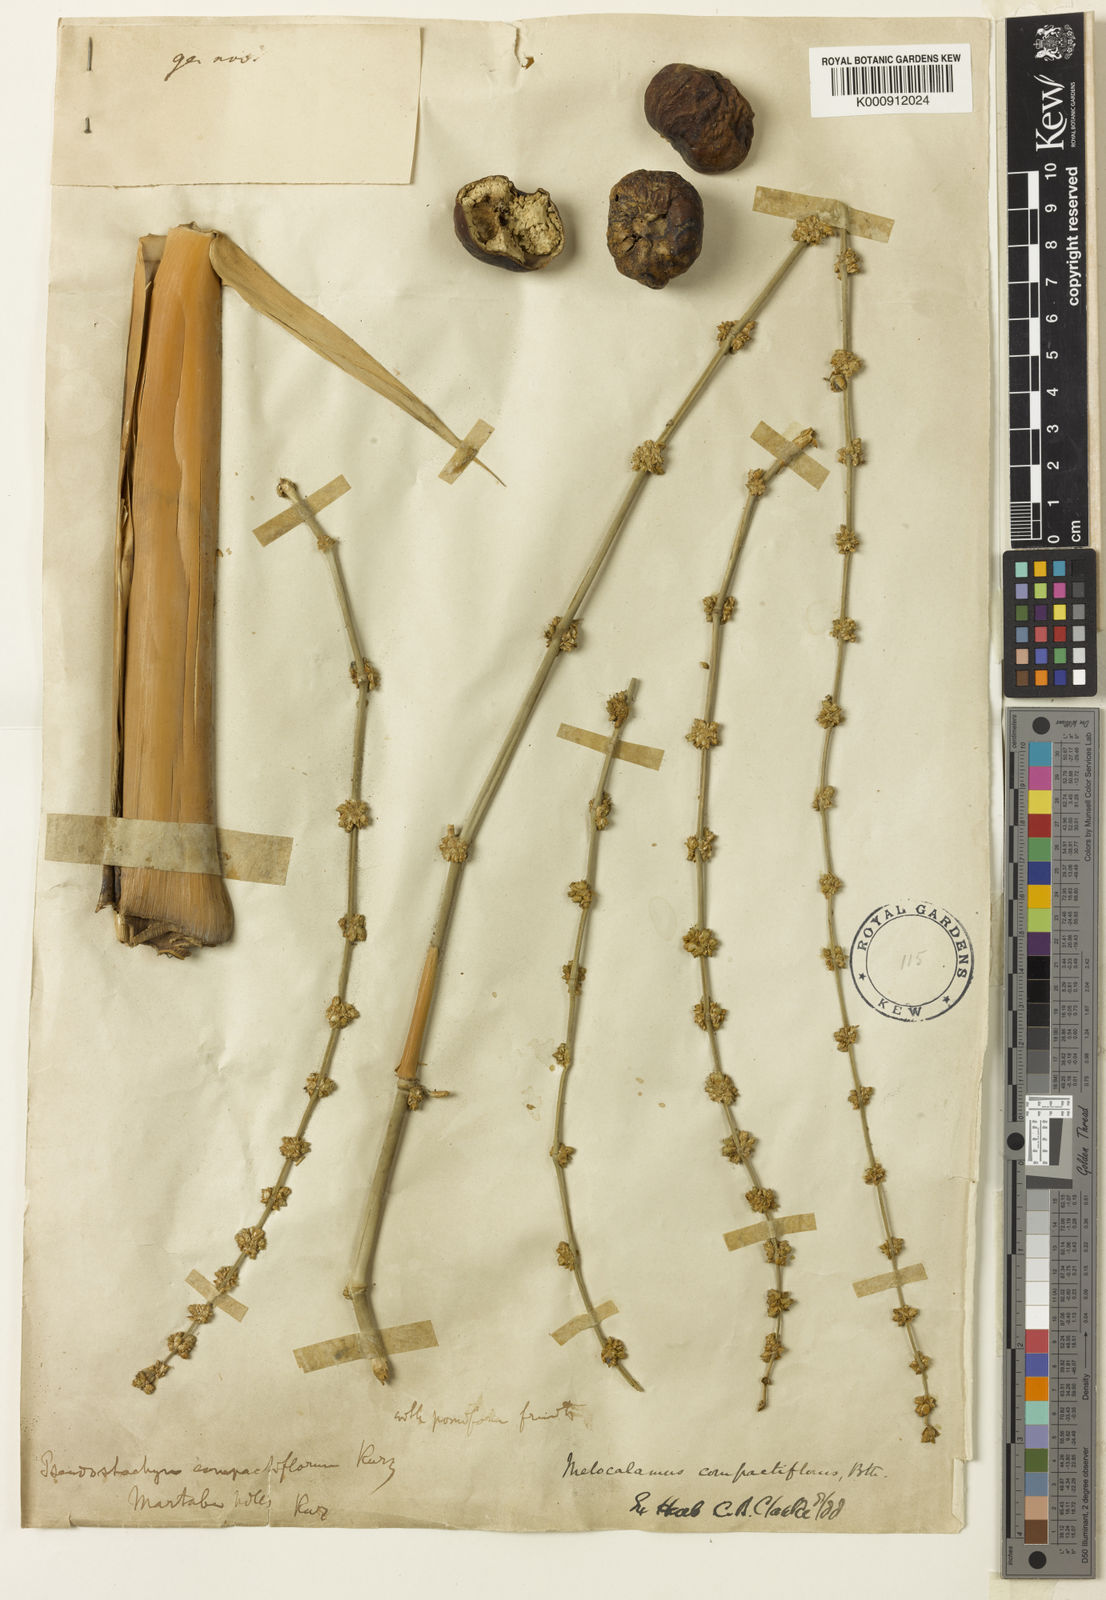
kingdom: Plantae
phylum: Tracheophyta
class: Liliopsida
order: Poales
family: Poaceae
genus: Melocalamus
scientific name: Melocalamus compactiflorus
